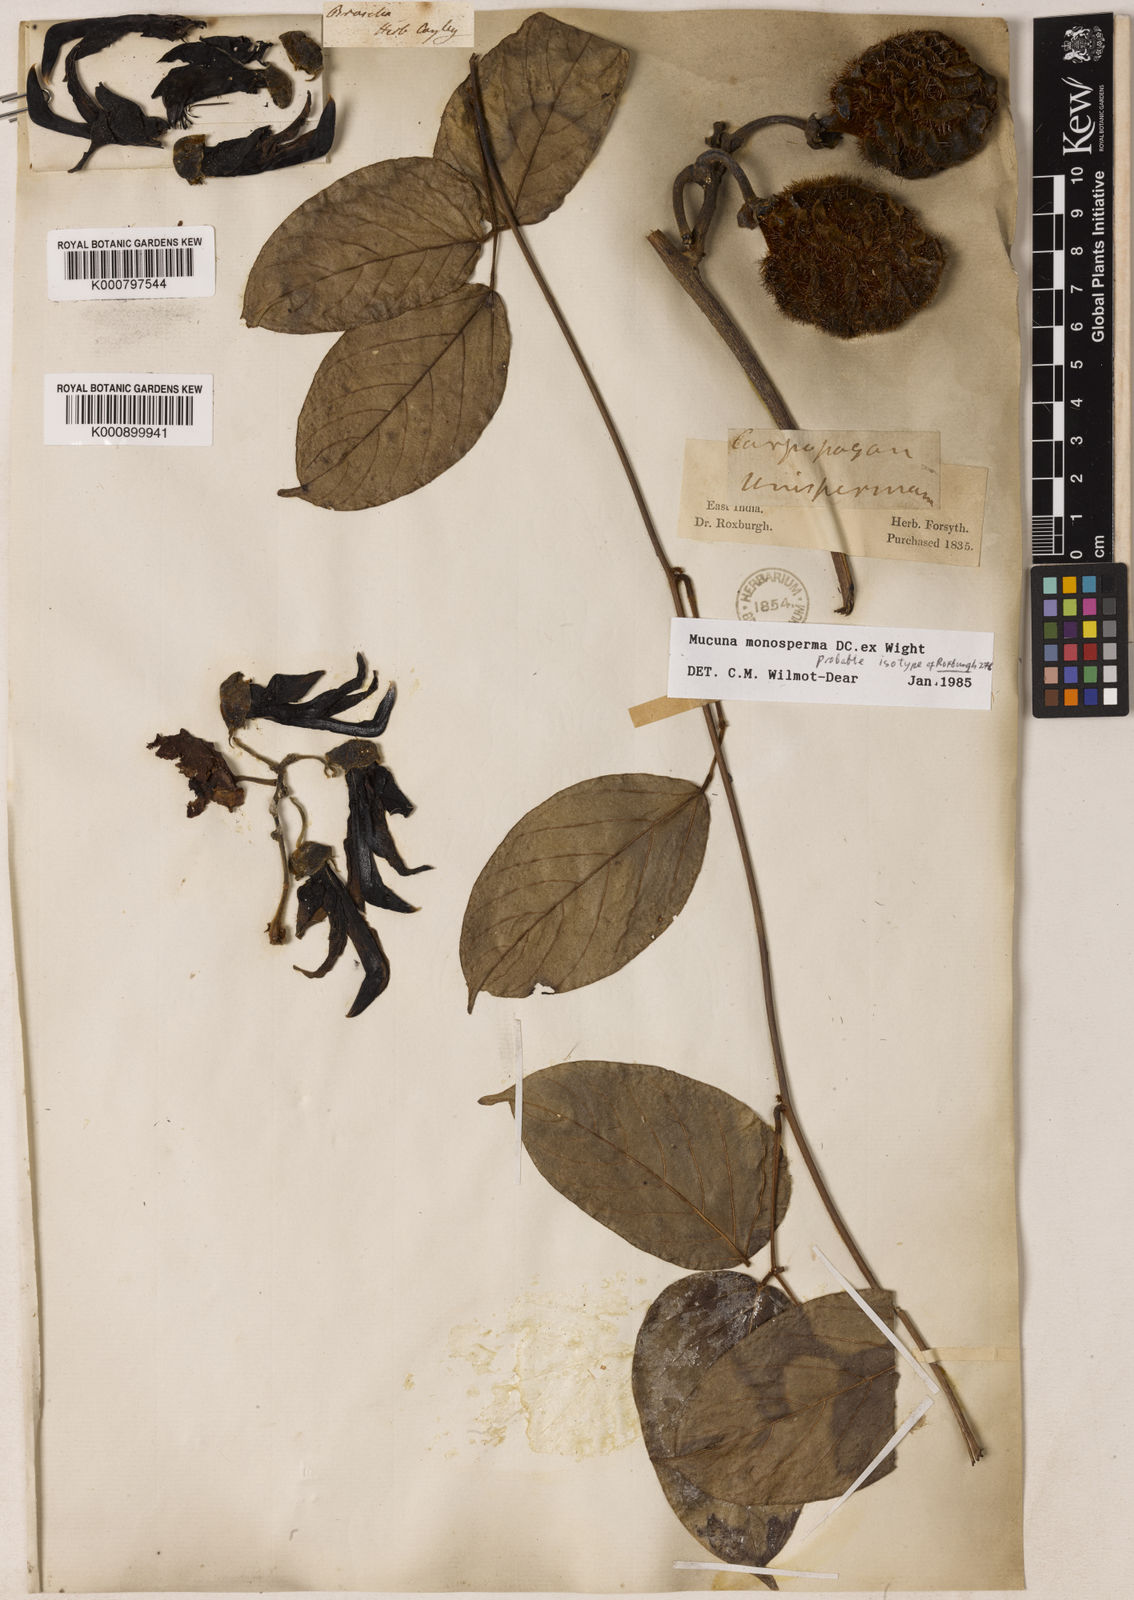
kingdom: Plantae
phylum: Tracheophyta
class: Magnoliopsida
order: Fabales
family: Fabaceae
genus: Mucuna
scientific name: Mucuna monosperma
